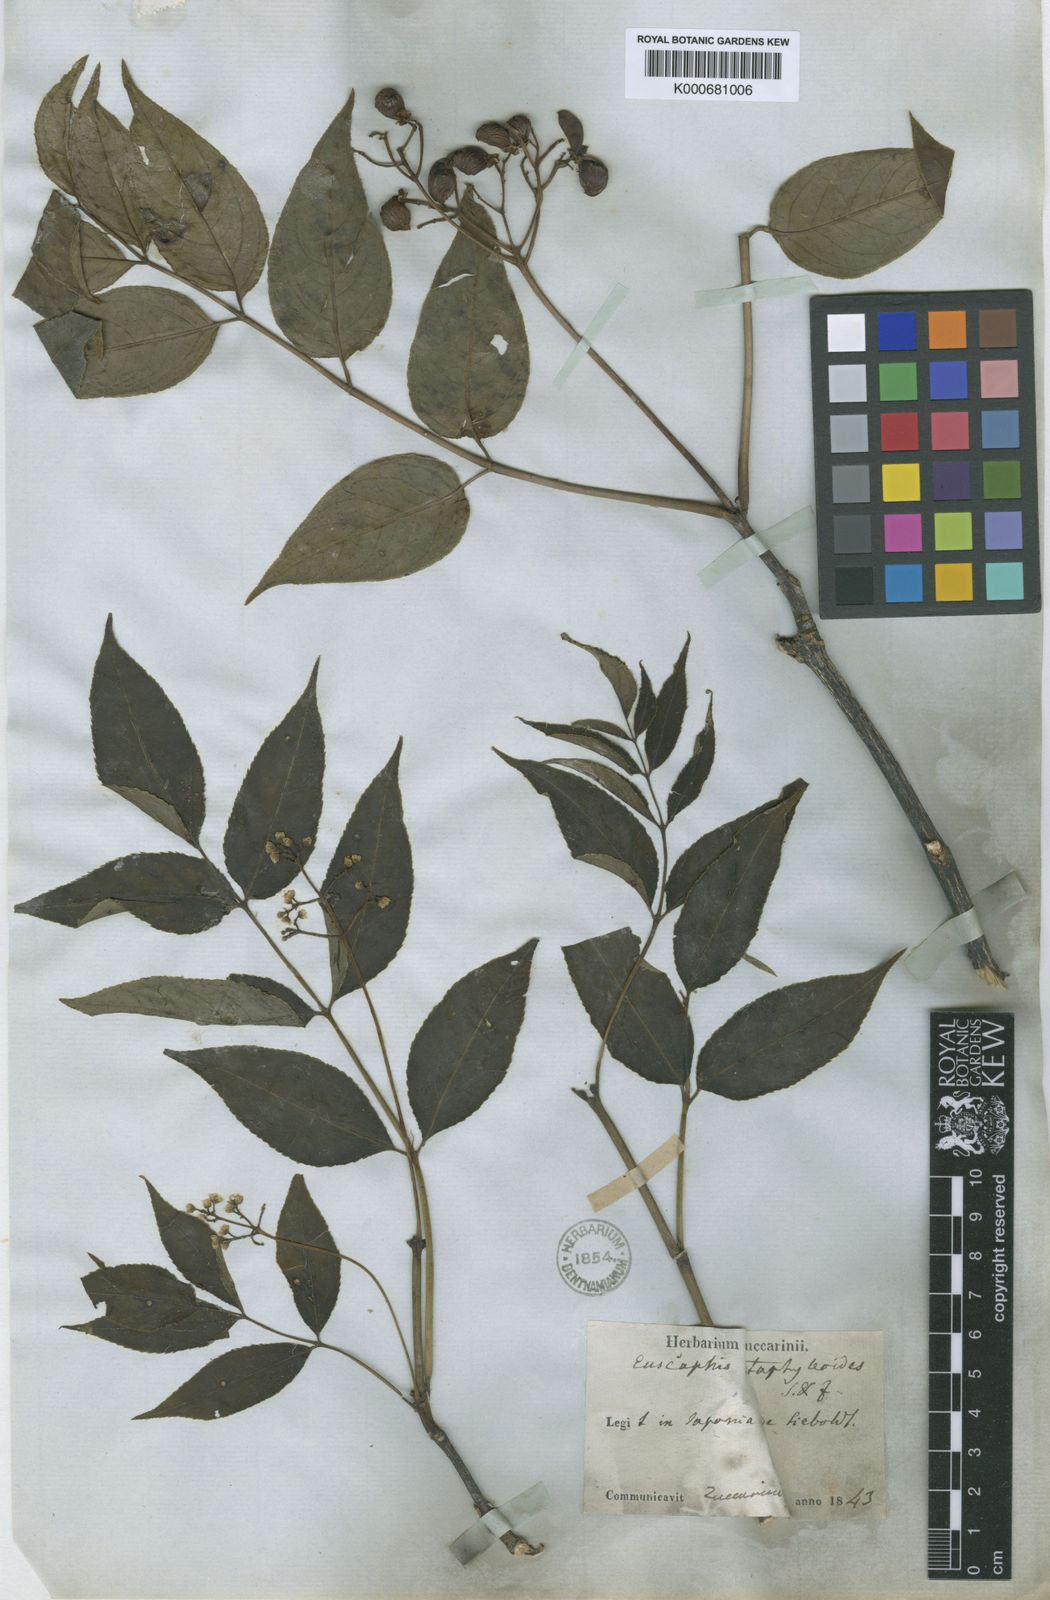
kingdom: Plantae
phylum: Tracheophyta
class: Magnoliopsida
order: Crossosomatales
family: Staphyleaceae
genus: Staphylea
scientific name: Staphylea japonica
